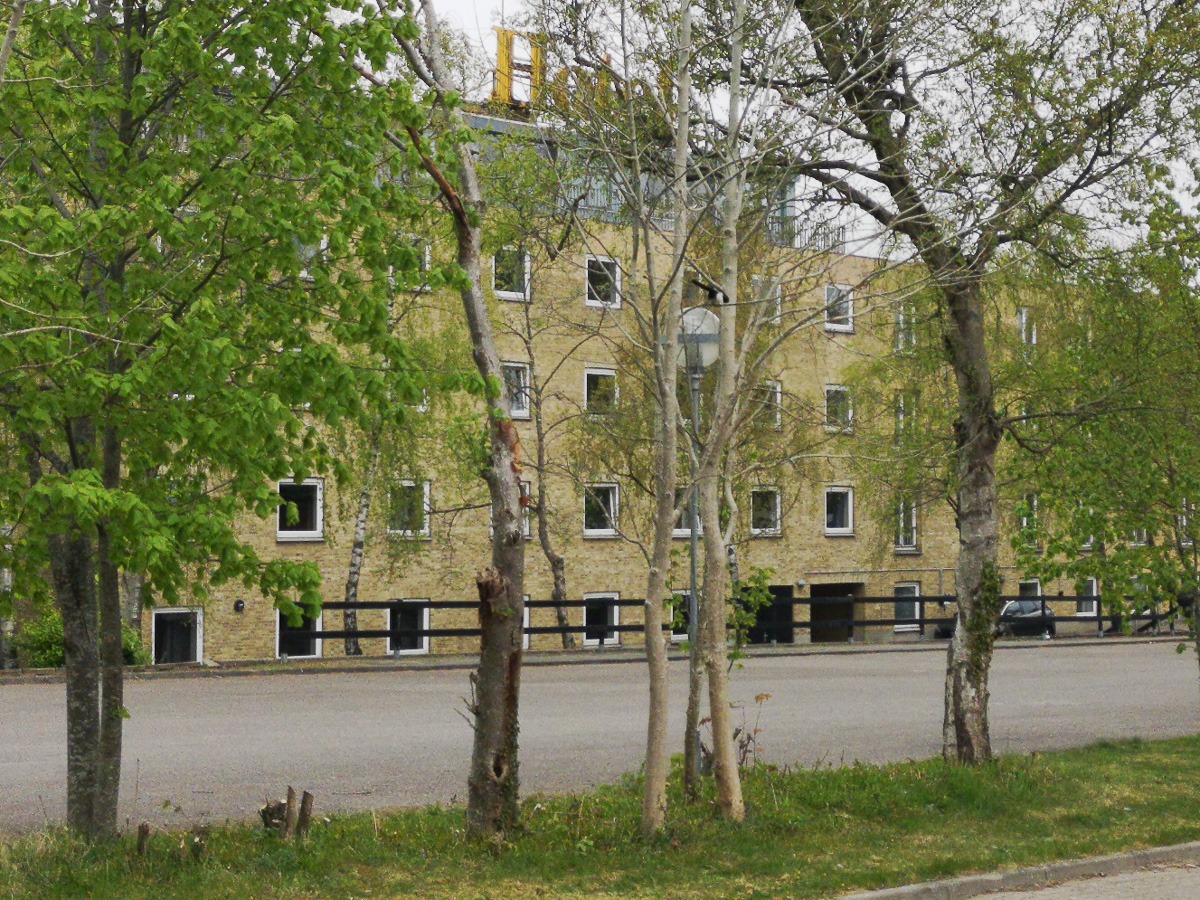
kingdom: Animalia
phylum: Chordata
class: Aves
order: Passeriformes
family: Corvidae
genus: Pica
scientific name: Pica pica
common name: Husskade
